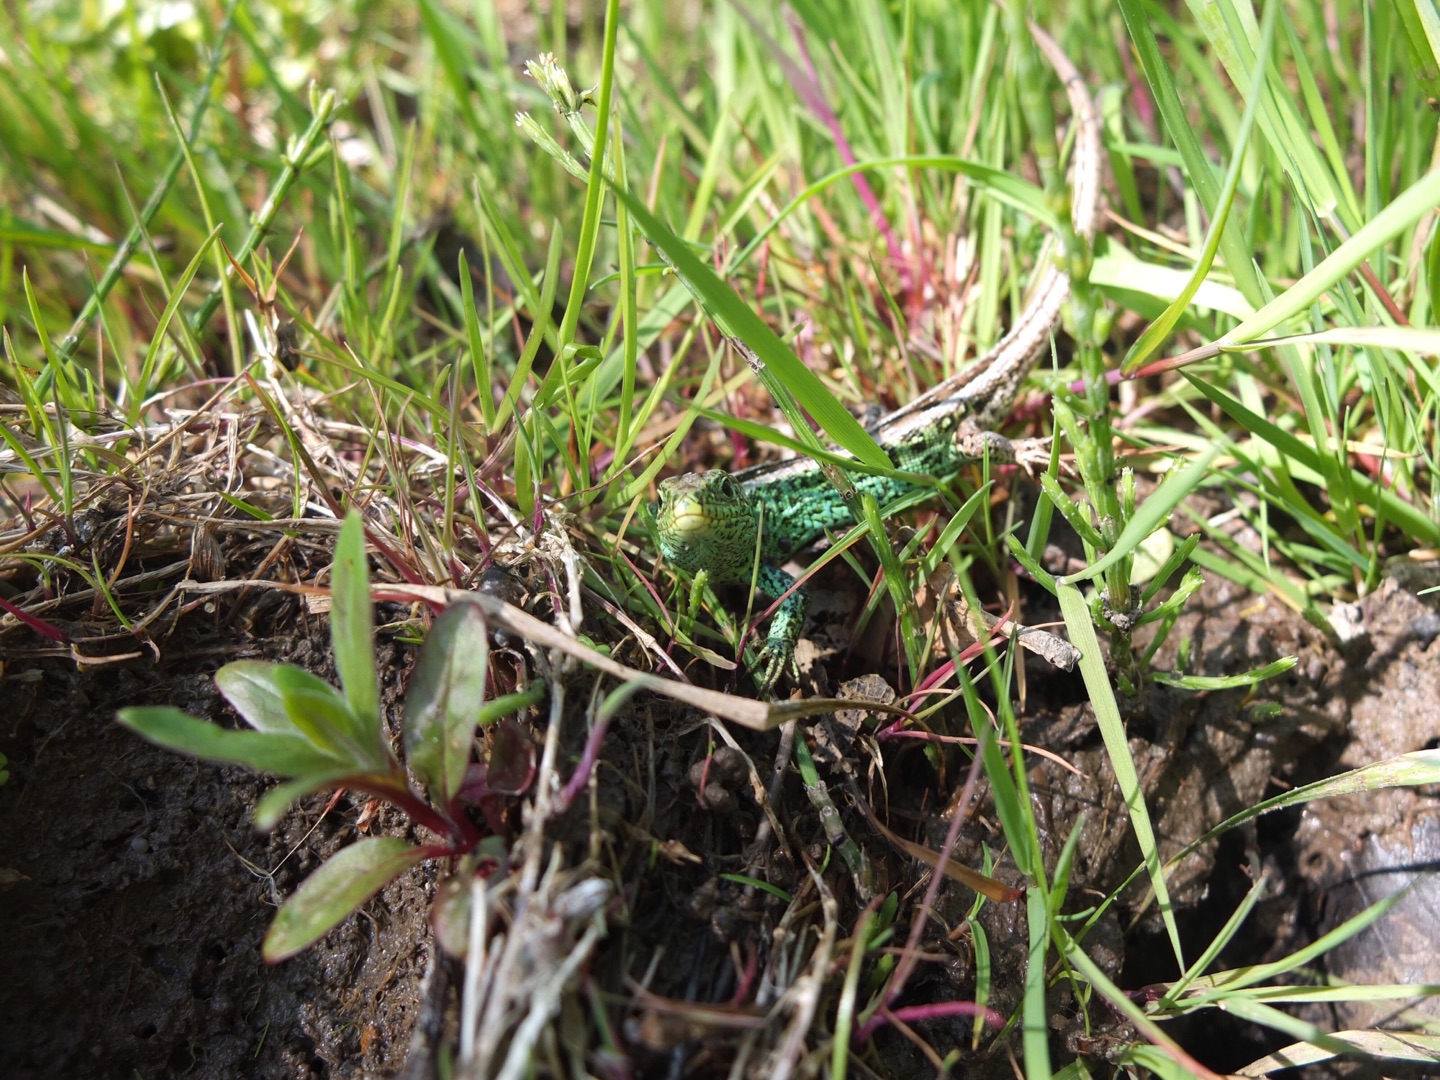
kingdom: Animalia
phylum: Chordata
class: Squamata
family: Lacertidae
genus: Lacerta
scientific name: Lacerta agilis
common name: Markfirben
